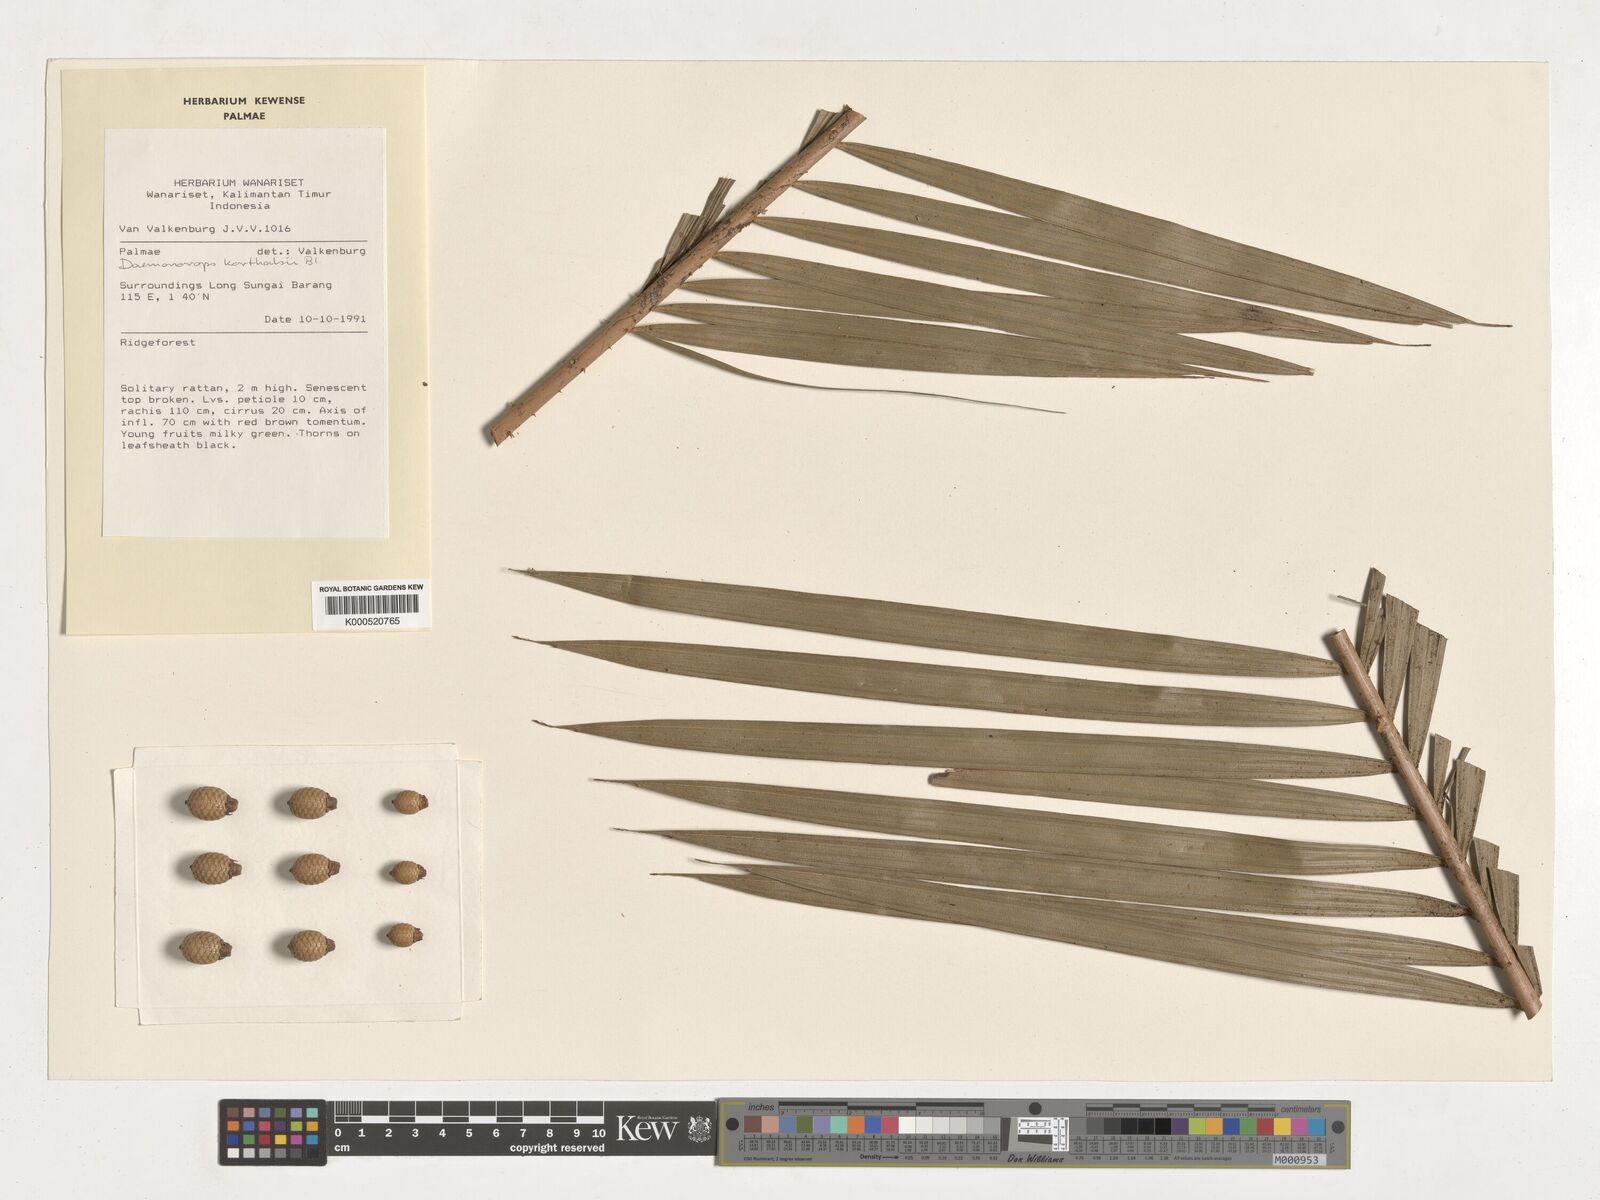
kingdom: Plantae
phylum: Tracheophyta
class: Liliopsida
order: Arecales
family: Arecaceae
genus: Calamus
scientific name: Calamus hirsutus
